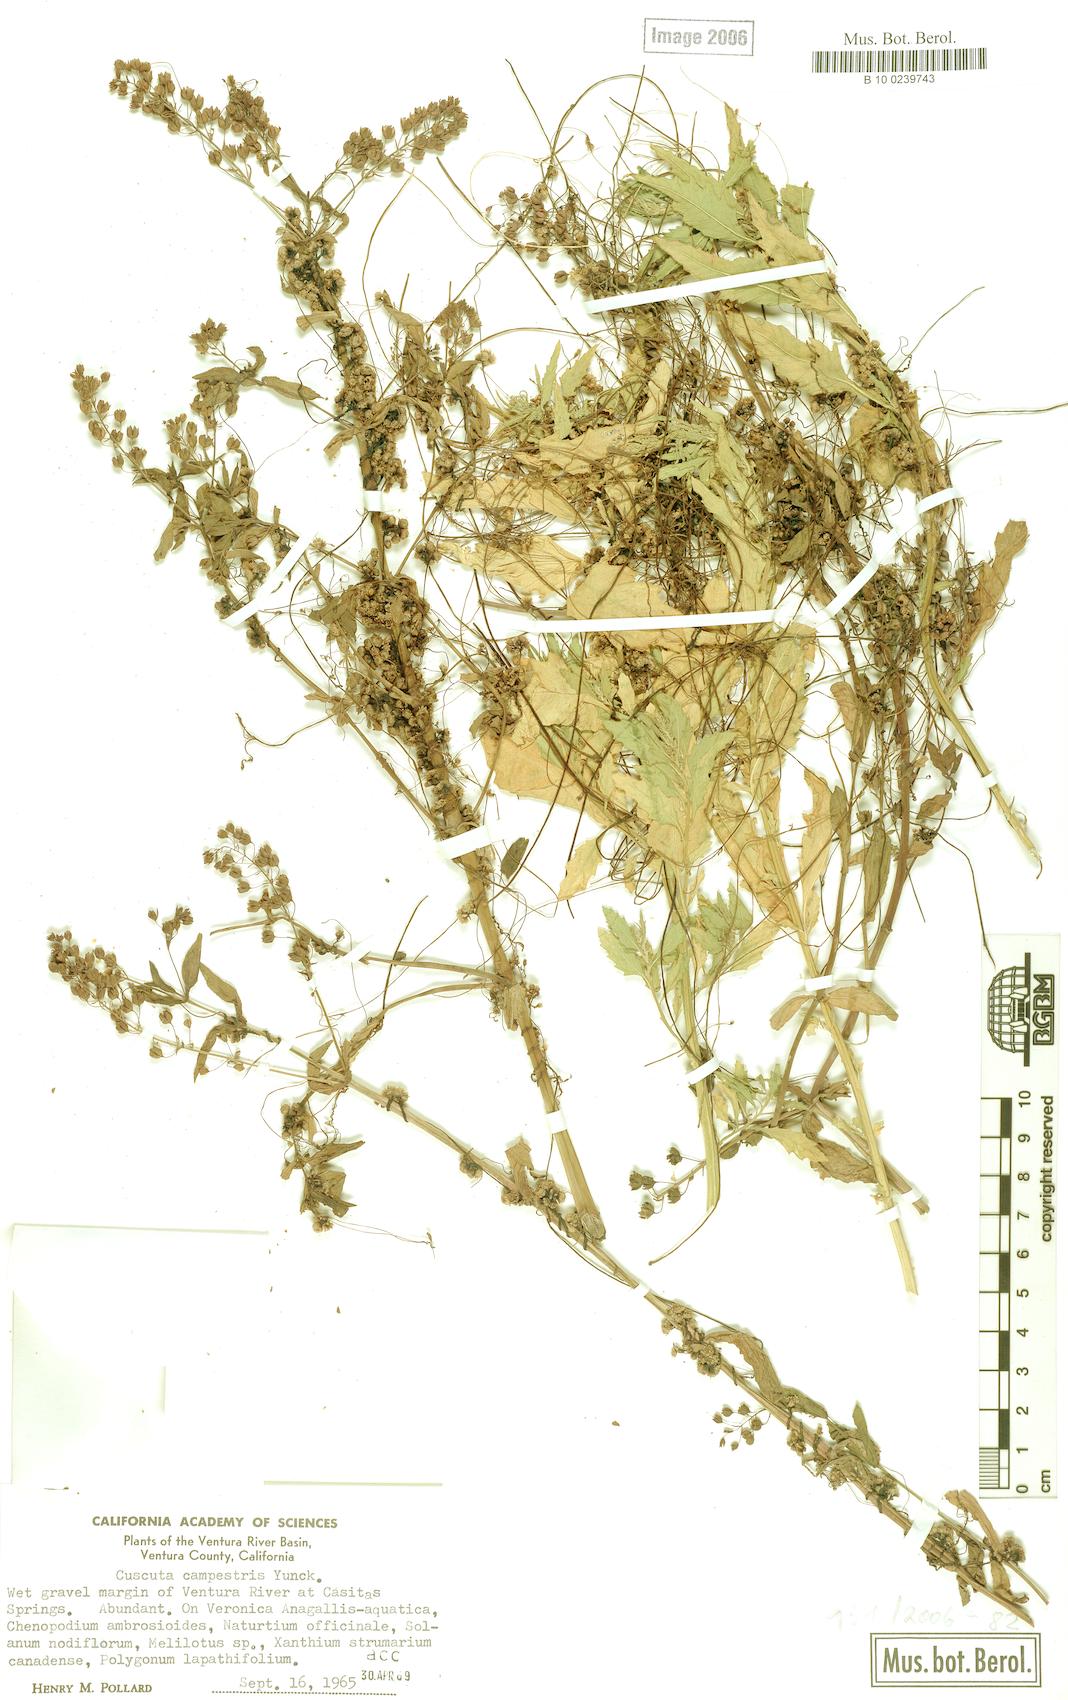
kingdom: Plantae
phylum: Tracheophyta
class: Magnoliopsida
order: Solanales
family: Convolvulaceae
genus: Cuscuta
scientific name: Cuscuta campestris
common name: Yellow dodder
